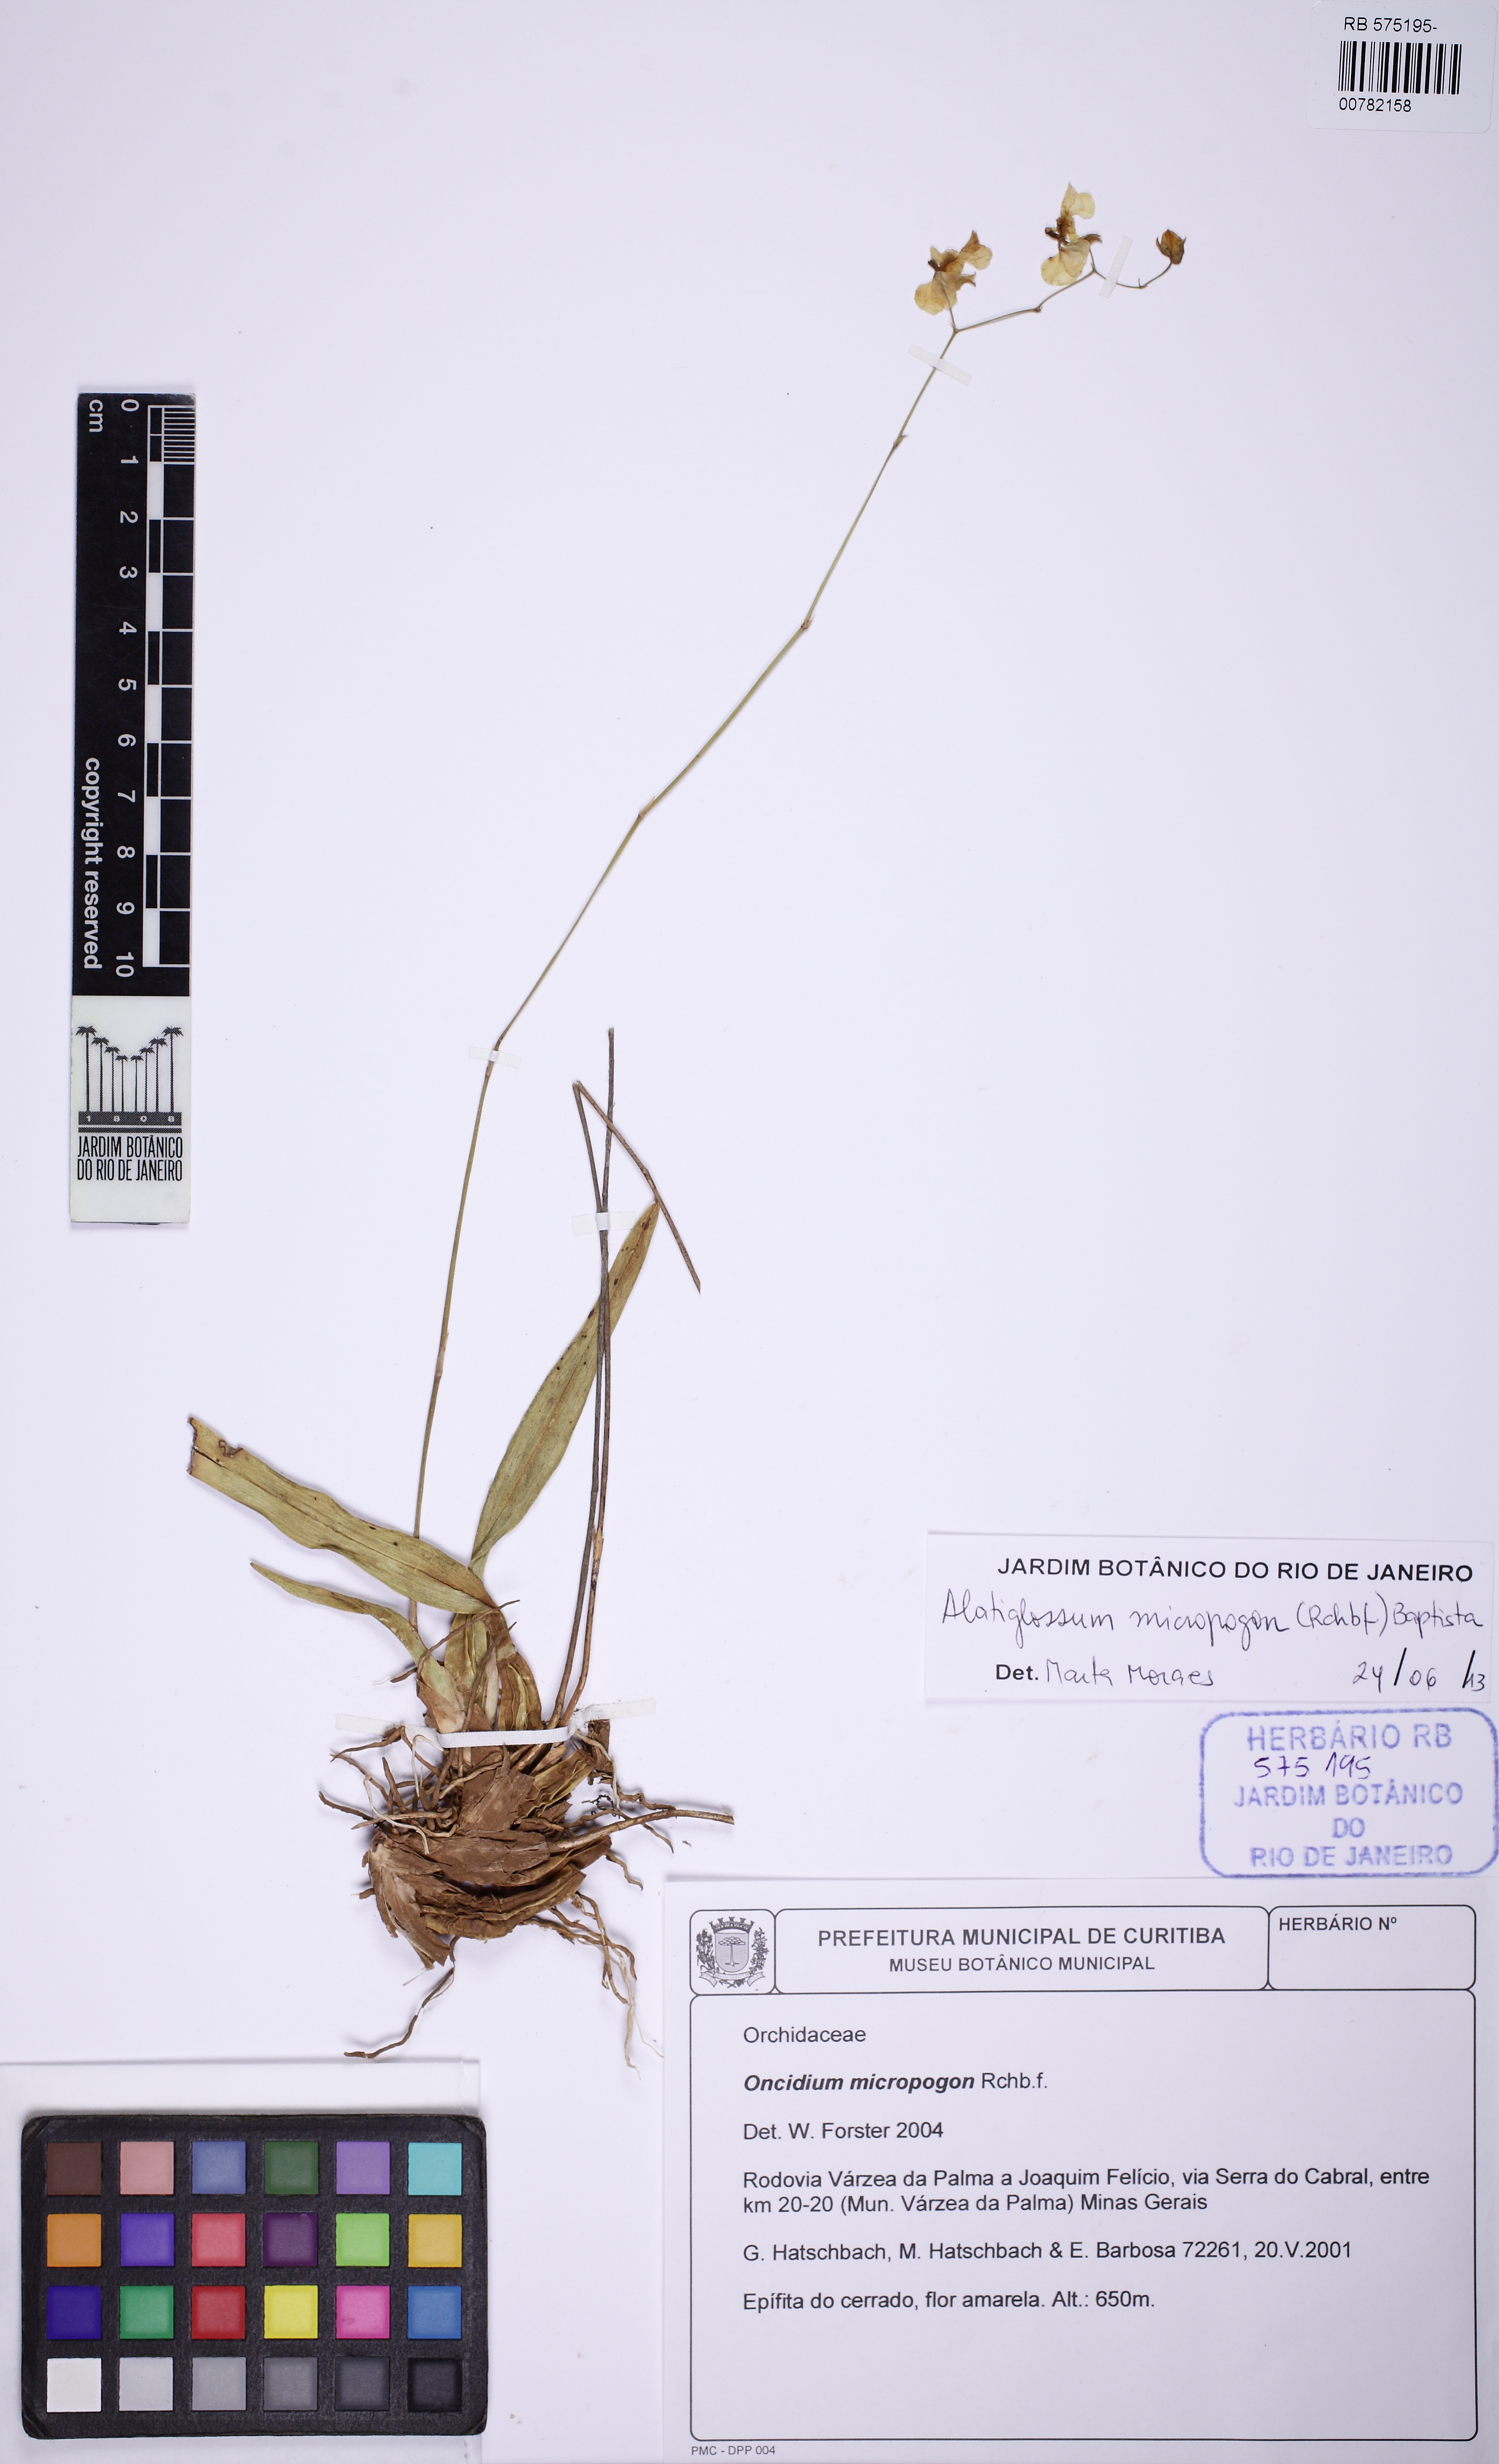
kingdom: Plantae
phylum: Tracheophyta
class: Liliopsida
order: Asparagales
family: Orchidaceae
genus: Gomesa
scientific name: Gomesa macropetala
